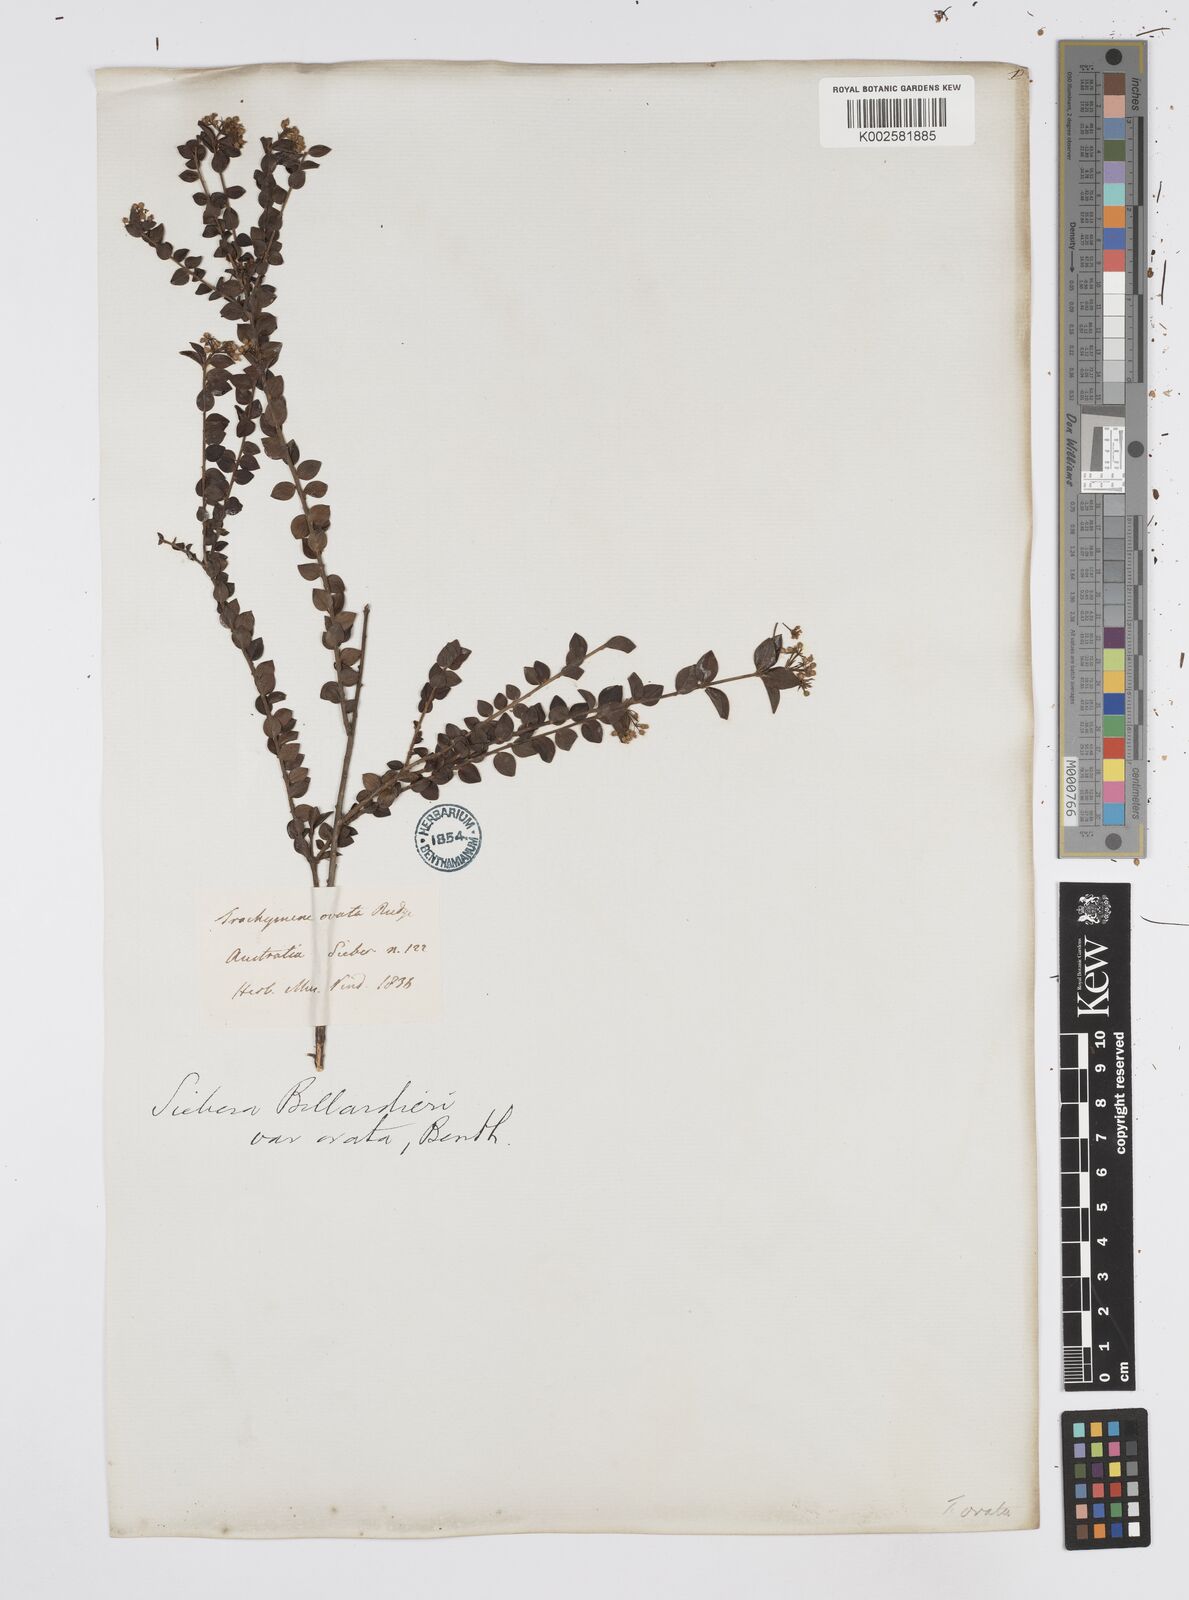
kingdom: Plantae
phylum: Tracheophyta
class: Magnoliopsida
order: Apiales
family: Apiaceae
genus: Platysace
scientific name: Platysace lanceolata
